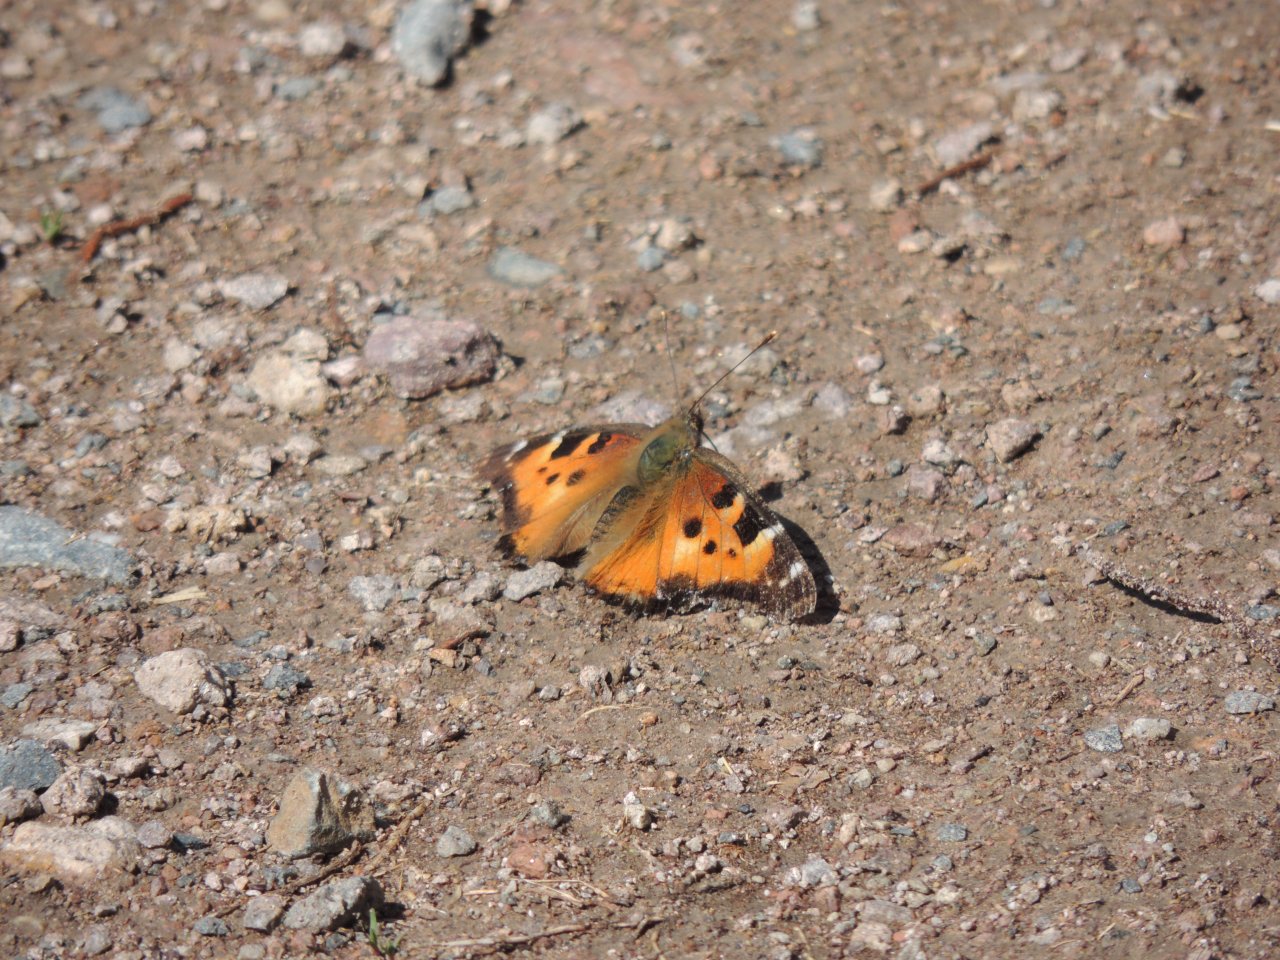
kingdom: Animalia
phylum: Arthropoda
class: Insecta
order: Lepidoptera
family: Nymphalidae
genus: Nymphalis
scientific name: Nymphalis californica
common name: California Tortoiseshell
